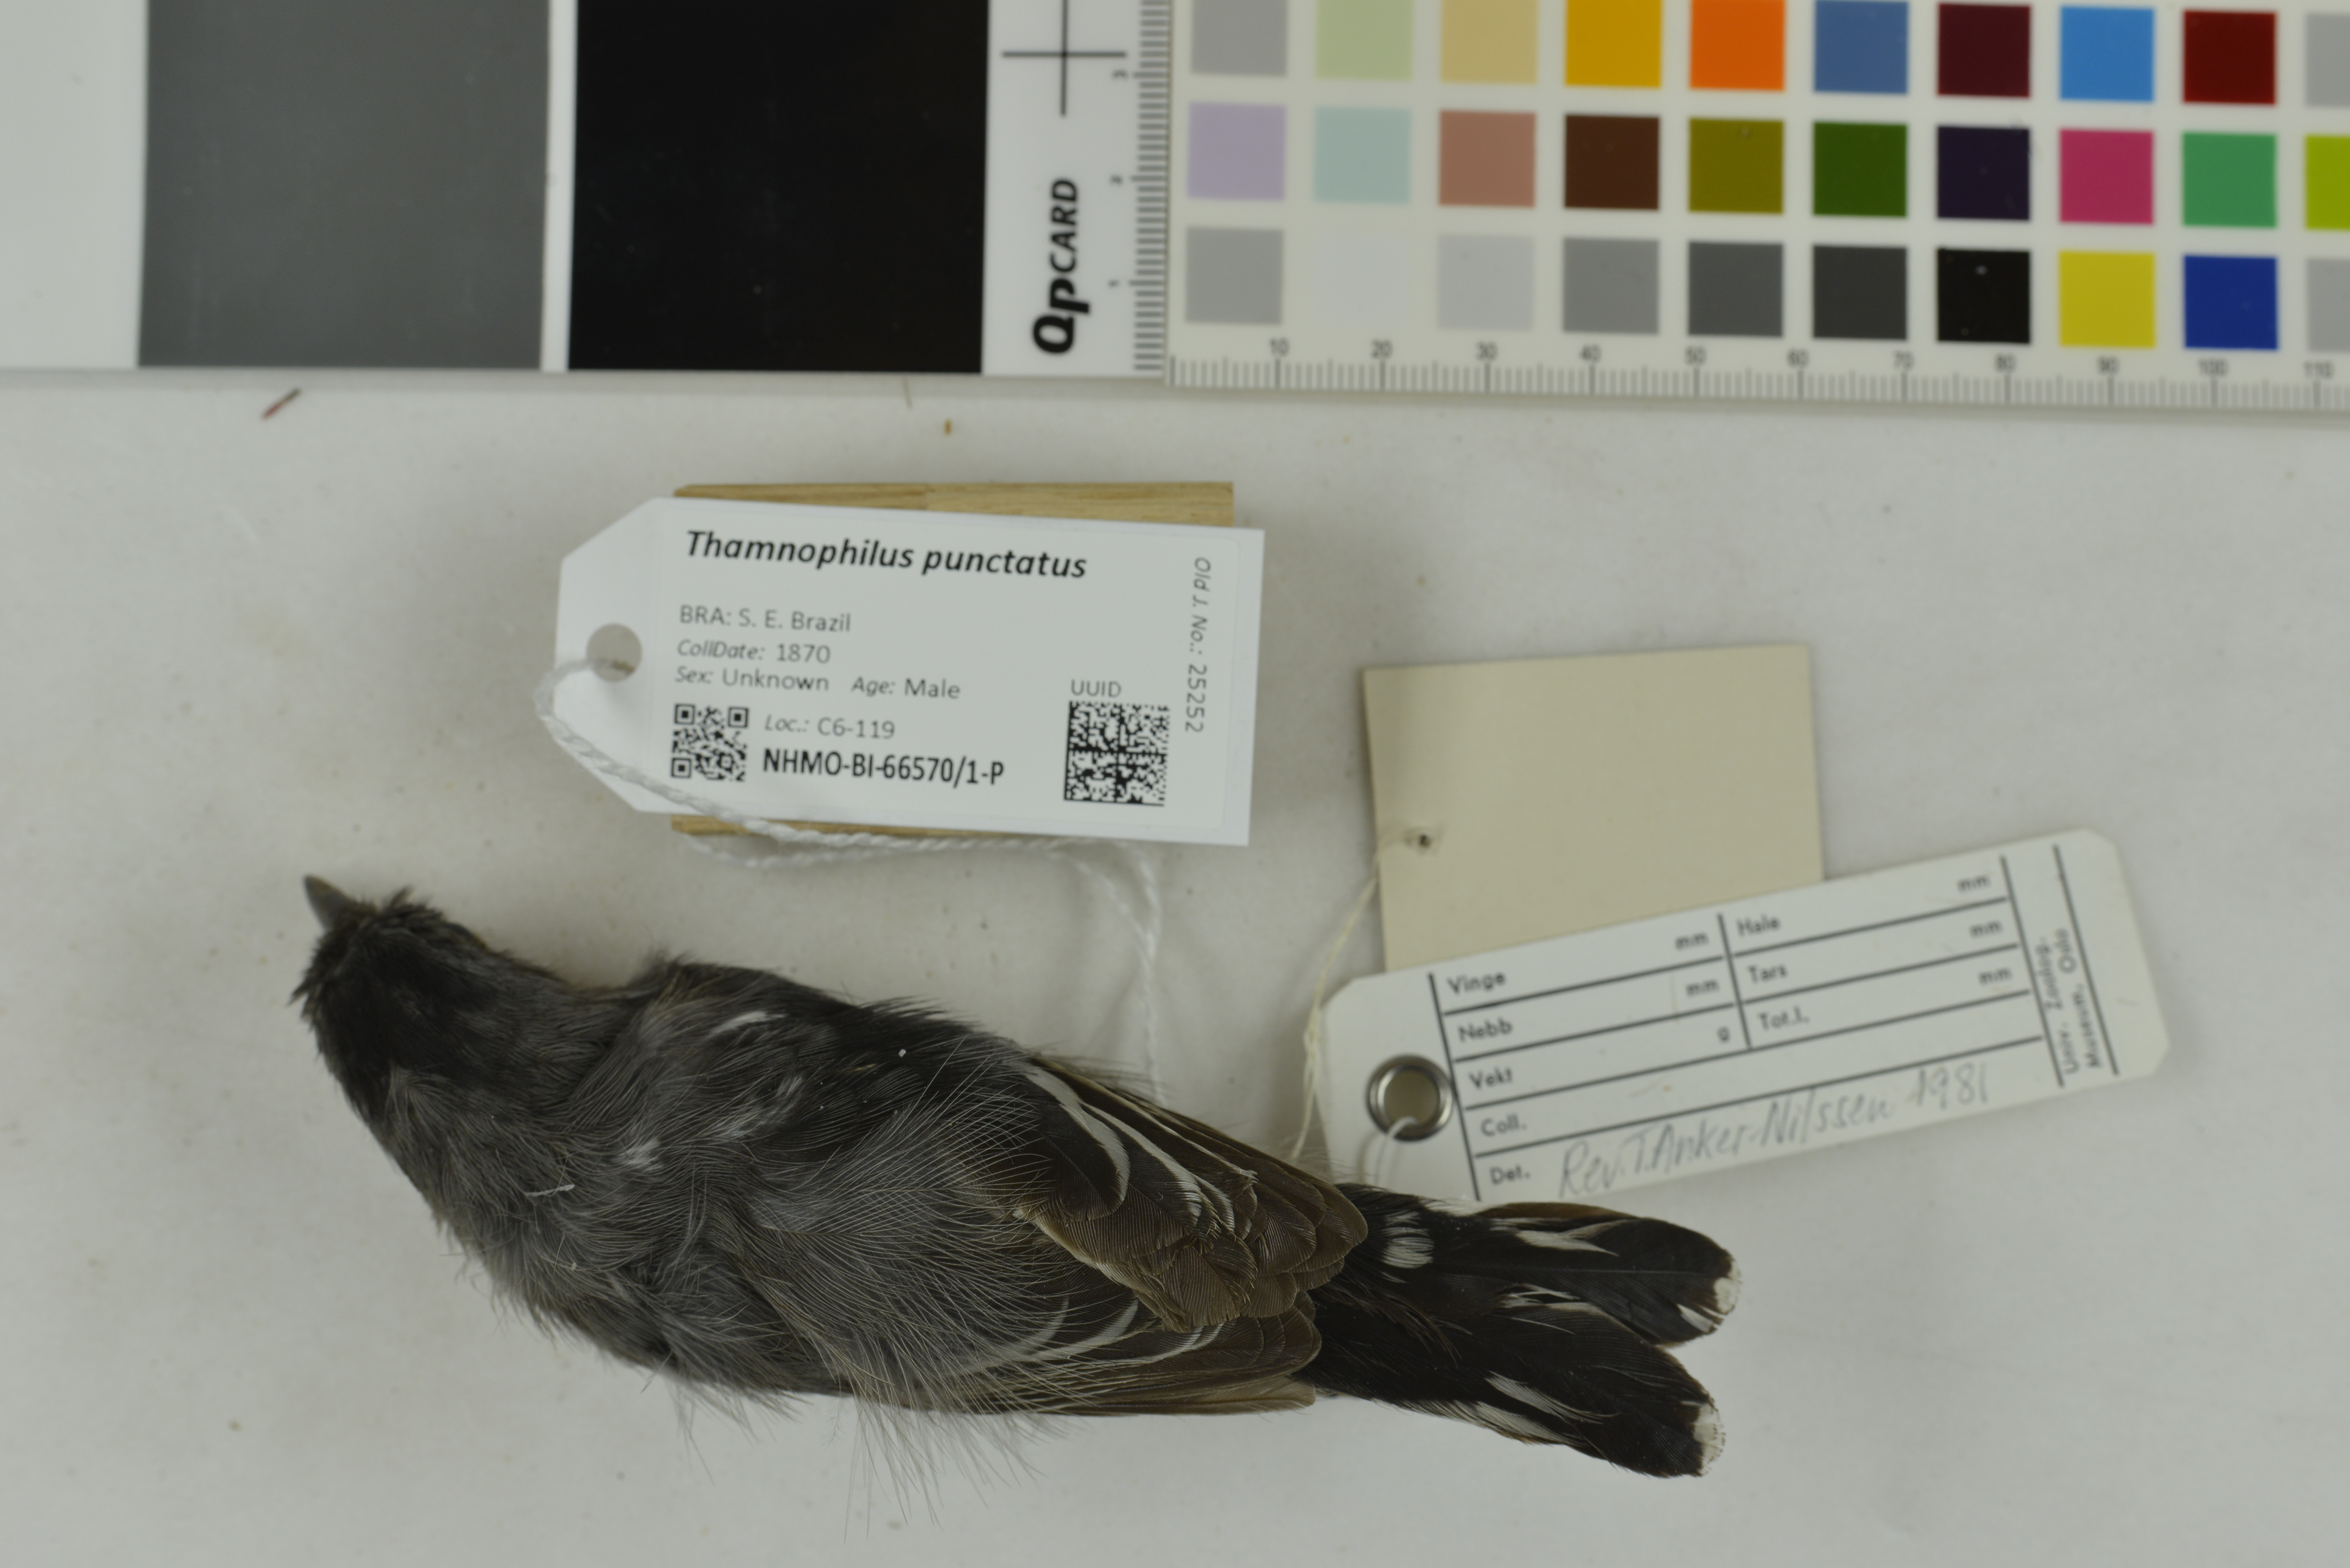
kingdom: Animalia
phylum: Chordata
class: Aves
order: Passeriformes
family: Thamnophilidae
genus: Thamnophilus
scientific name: Thamnophilus punctatus
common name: Northern slaty antshrike
